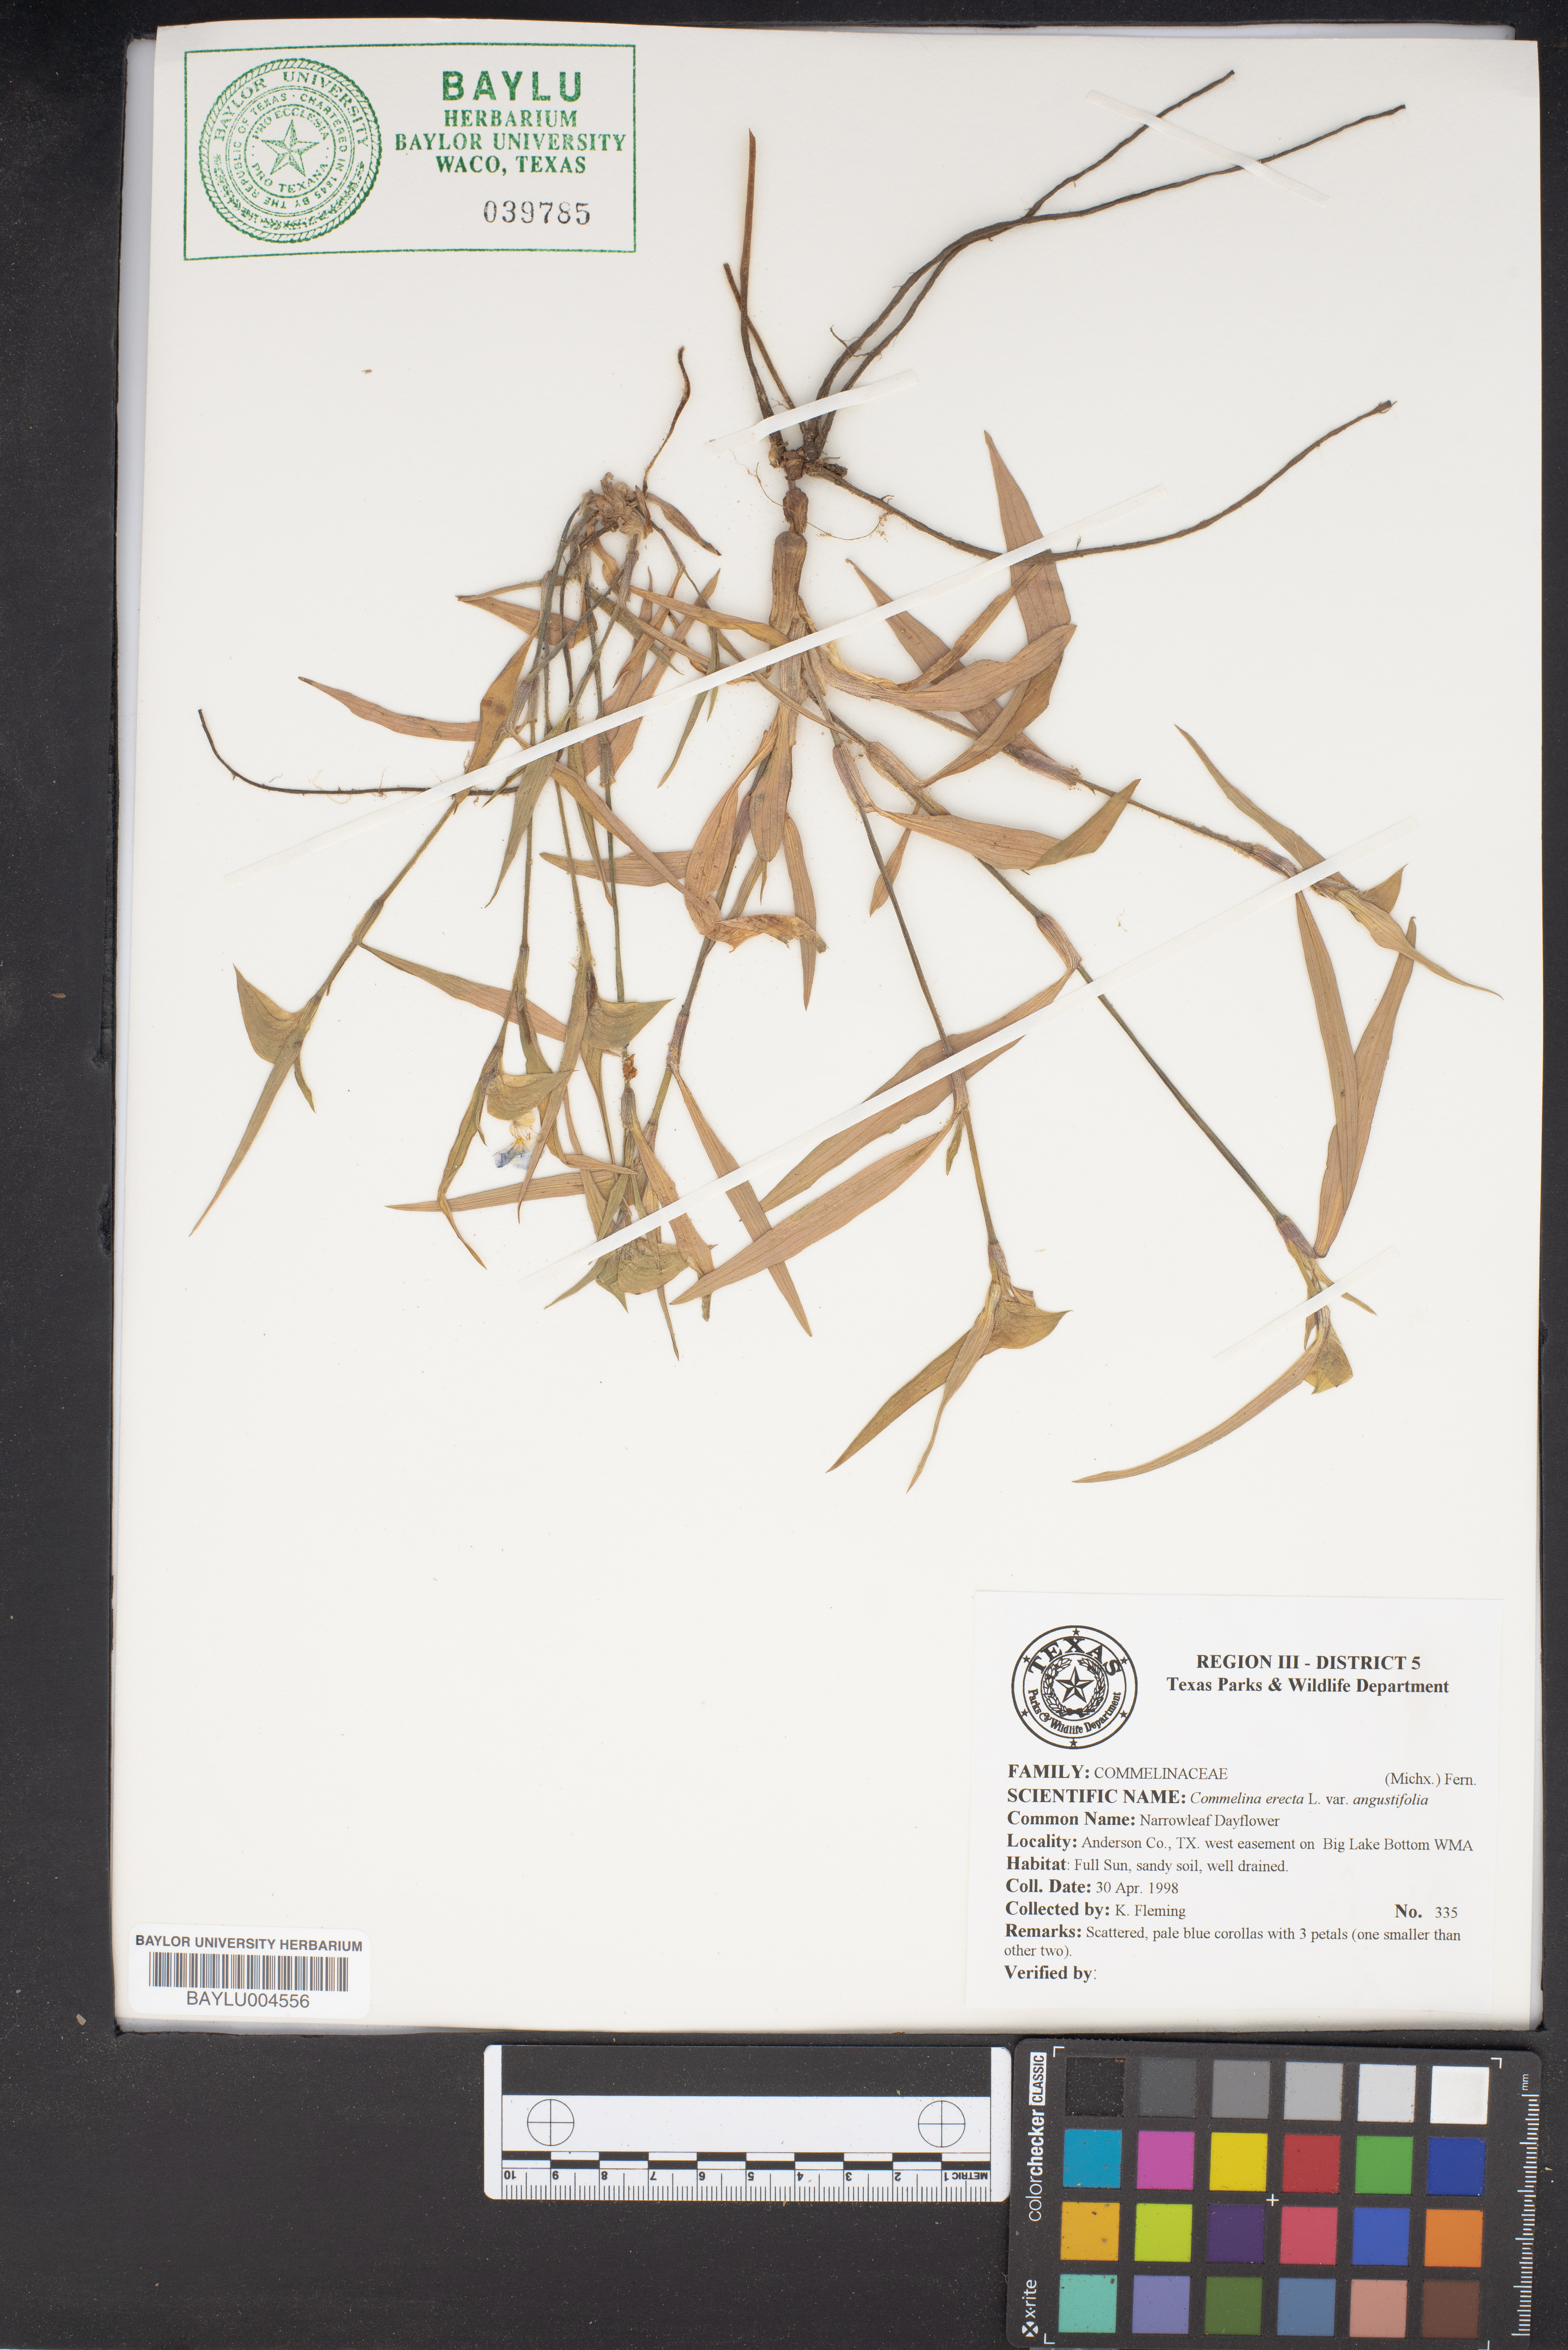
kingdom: Plantae
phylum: Tracheophyta
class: Liliopsida
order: Commelinales
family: Commelinaceae
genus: Commelina
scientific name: Commelina erecta
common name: Blousel blommetjie
